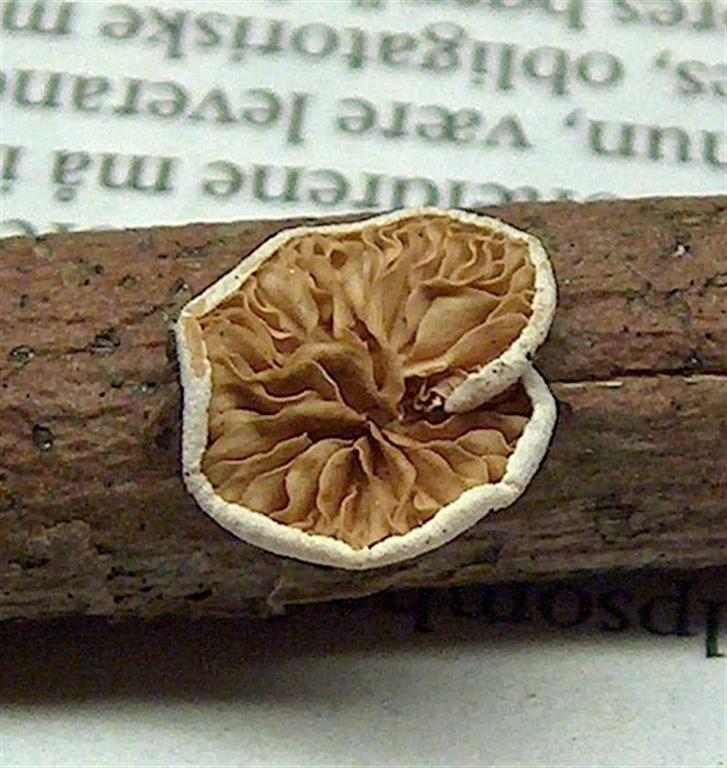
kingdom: Fungi
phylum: Basidiomycota
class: Agaricomycetes
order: Agaricales
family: Crepidotaceae
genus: Crepidotus
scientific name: Crepidotus cesatii
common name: almindelig muslingesvamp
